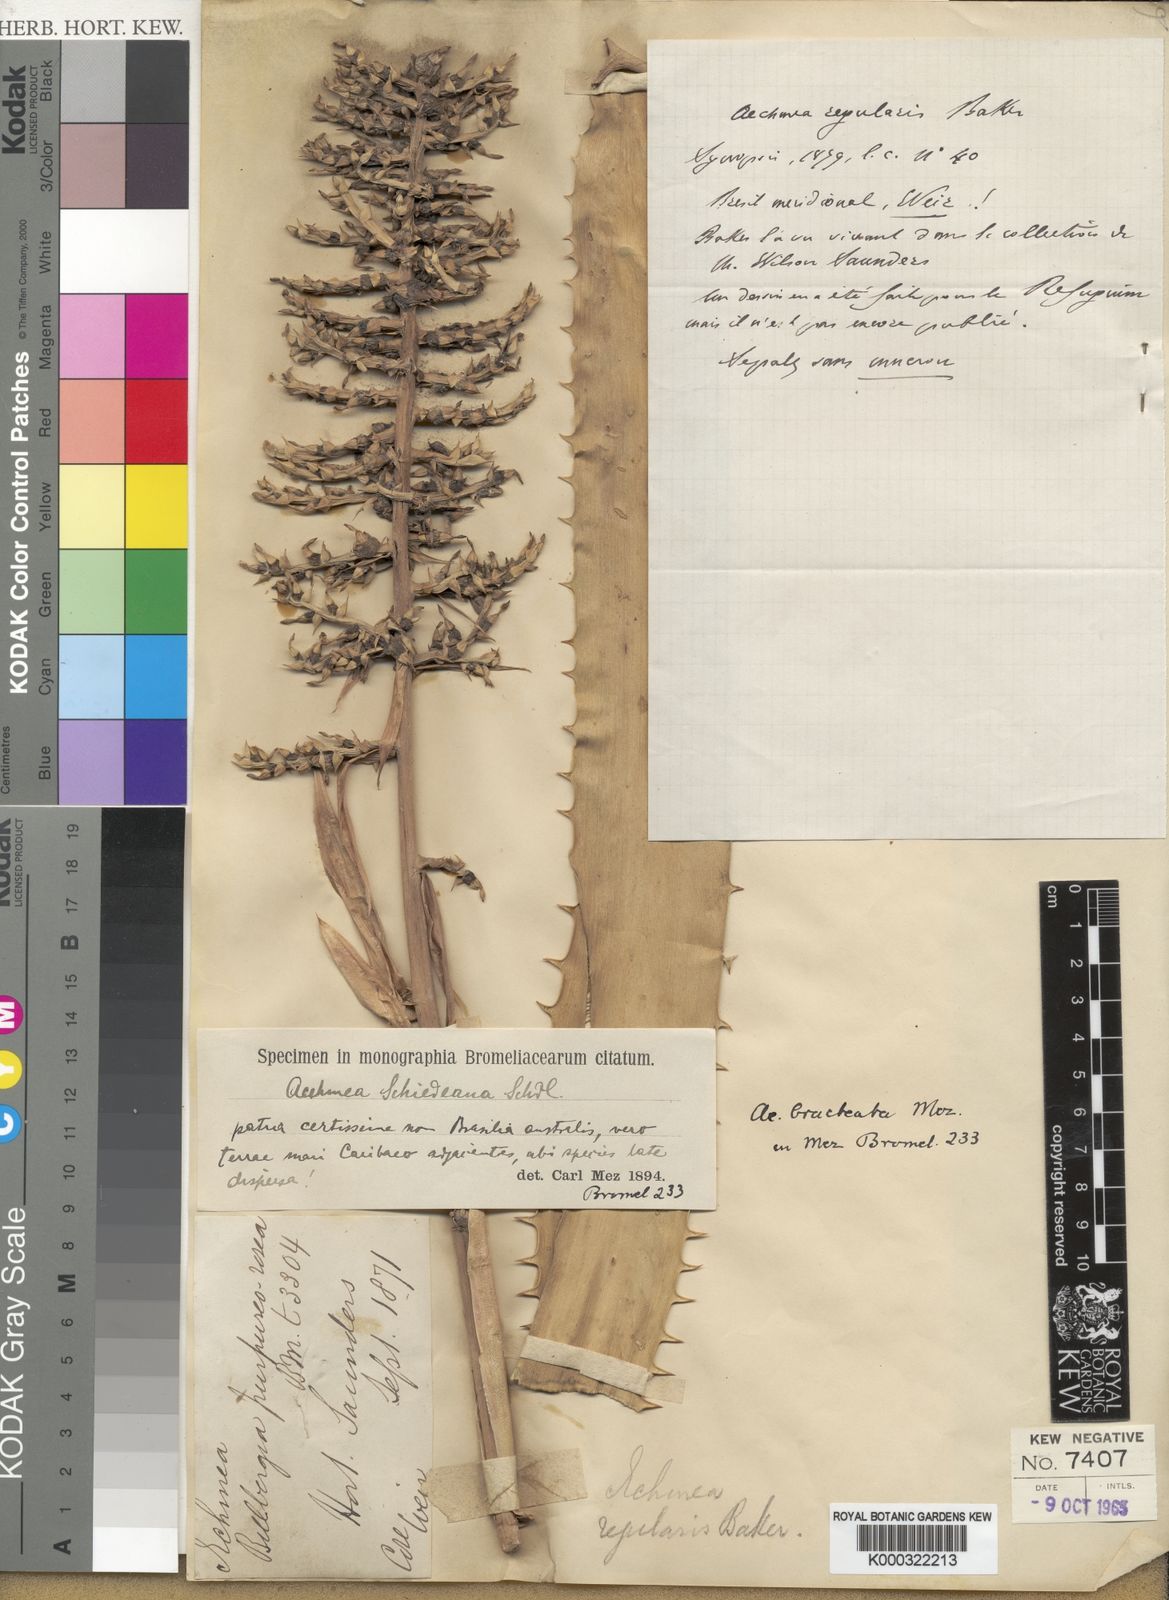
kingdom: Plantae
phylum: Tracheophyta
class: Liliopsida
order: Poales
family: Bromeliaceae
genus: Aechmea
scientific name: Aechmea bracteata
